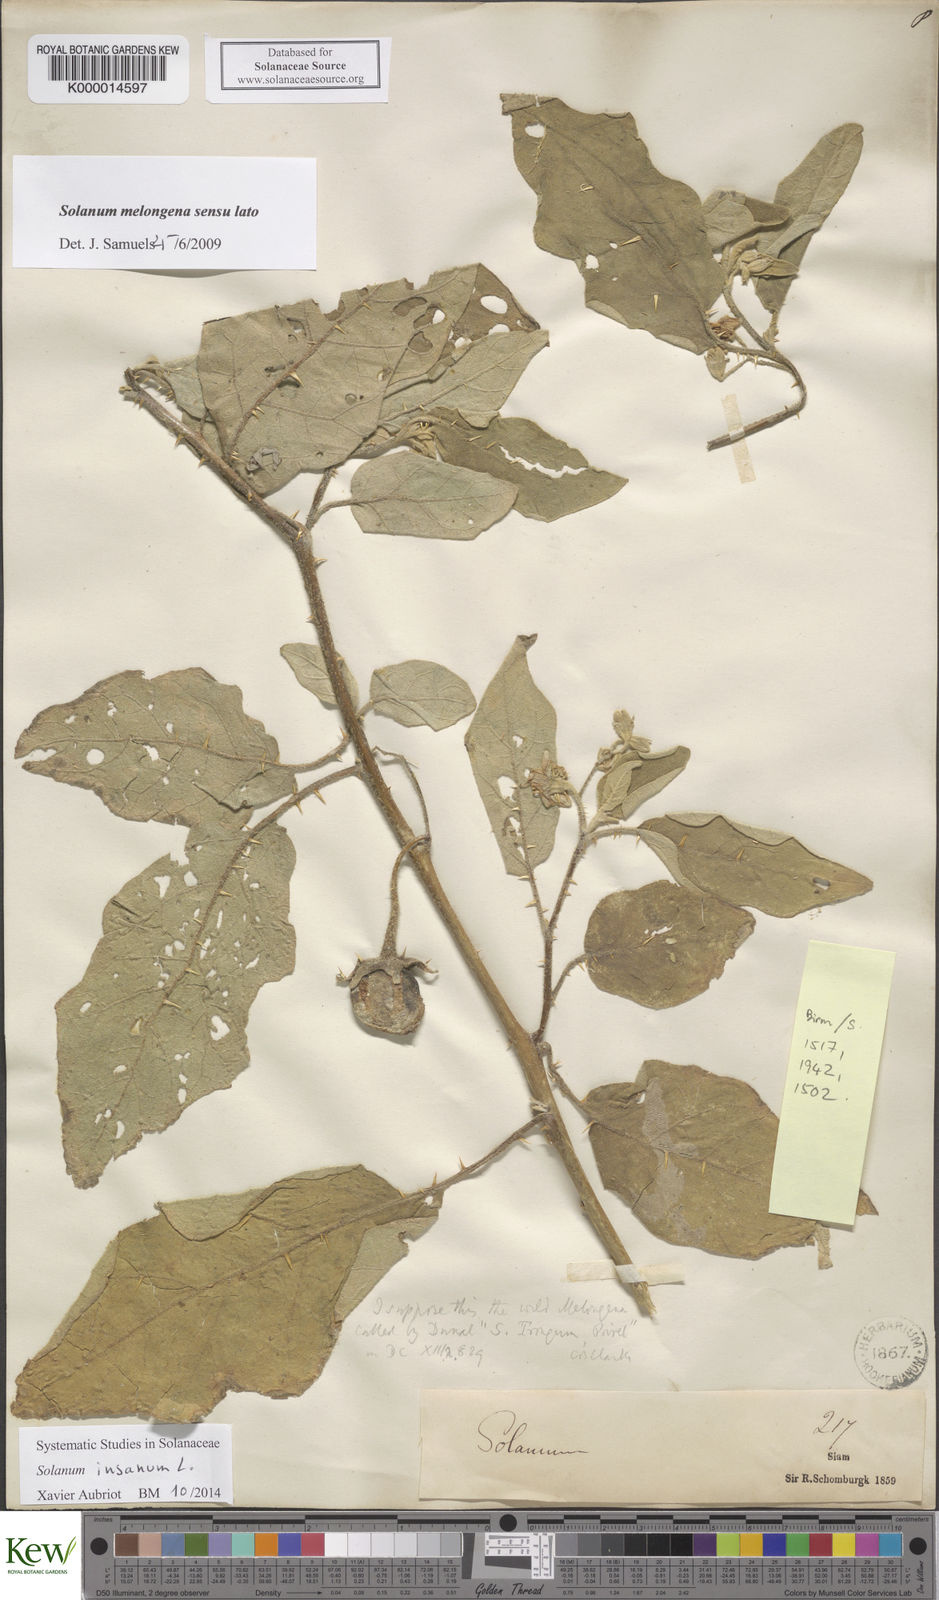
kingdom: Plantae
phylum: Tracheophyta
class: Magnoliopsida
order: Solanales
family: Solanaceae
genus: Solanum
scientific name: Solanum insanum
